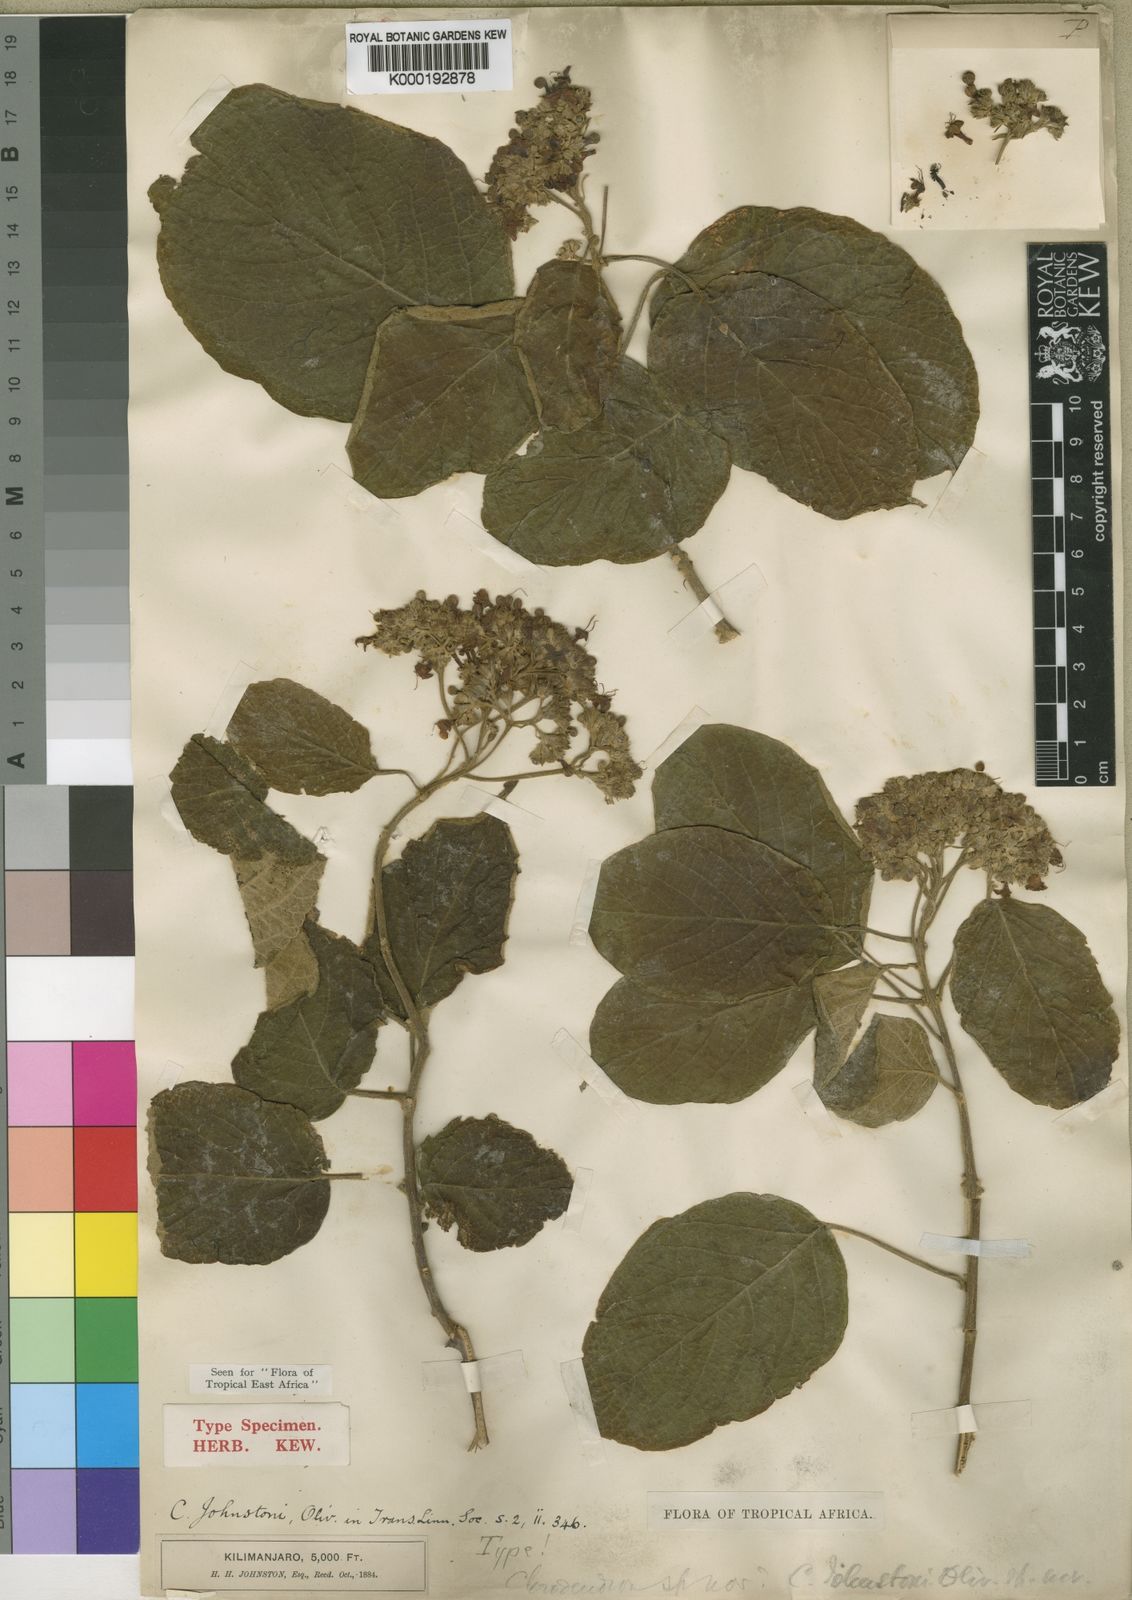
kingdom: Plantae
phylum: Tracheophyta
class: Magnoliopsida
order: Lamiales
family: Lamiaceae
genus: Clerodendrum
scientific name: Clerodendrum johnstonii
